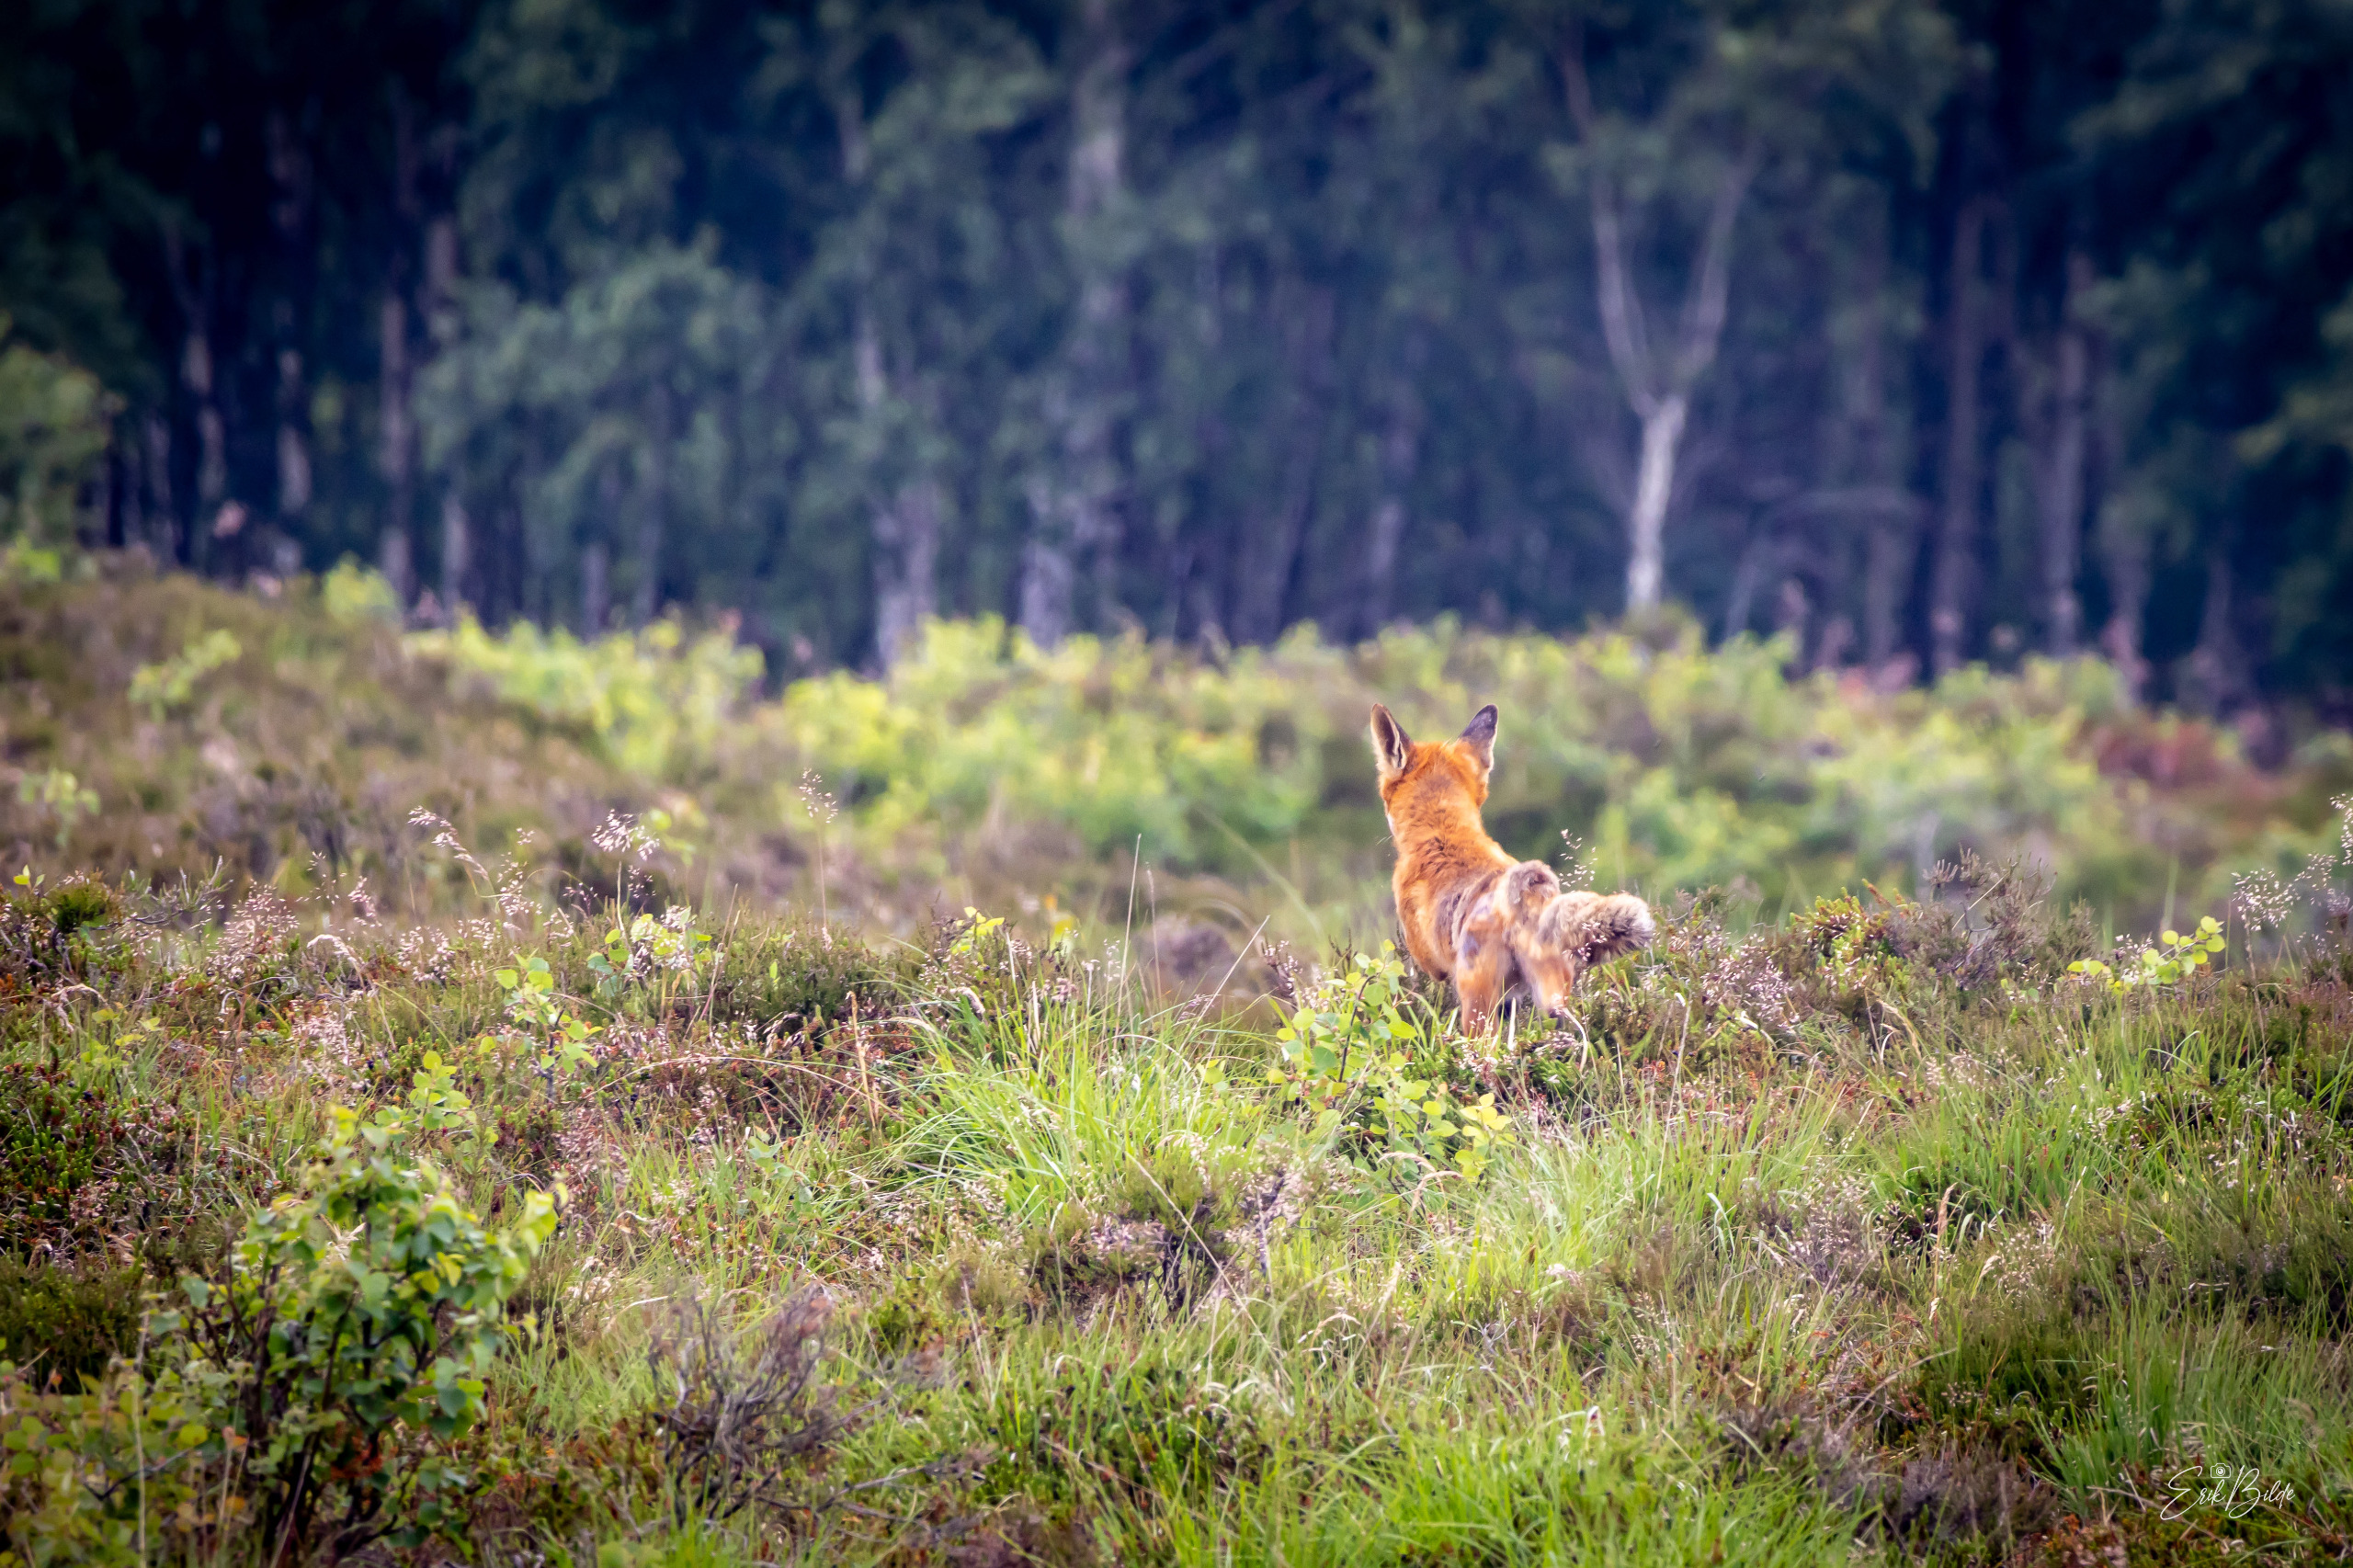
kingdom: Animalia
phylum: Chordata
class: Mammalia
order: Carnivora
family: Canidae
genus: Vulpes
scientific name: Vulpes vulpes
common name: Ræv
